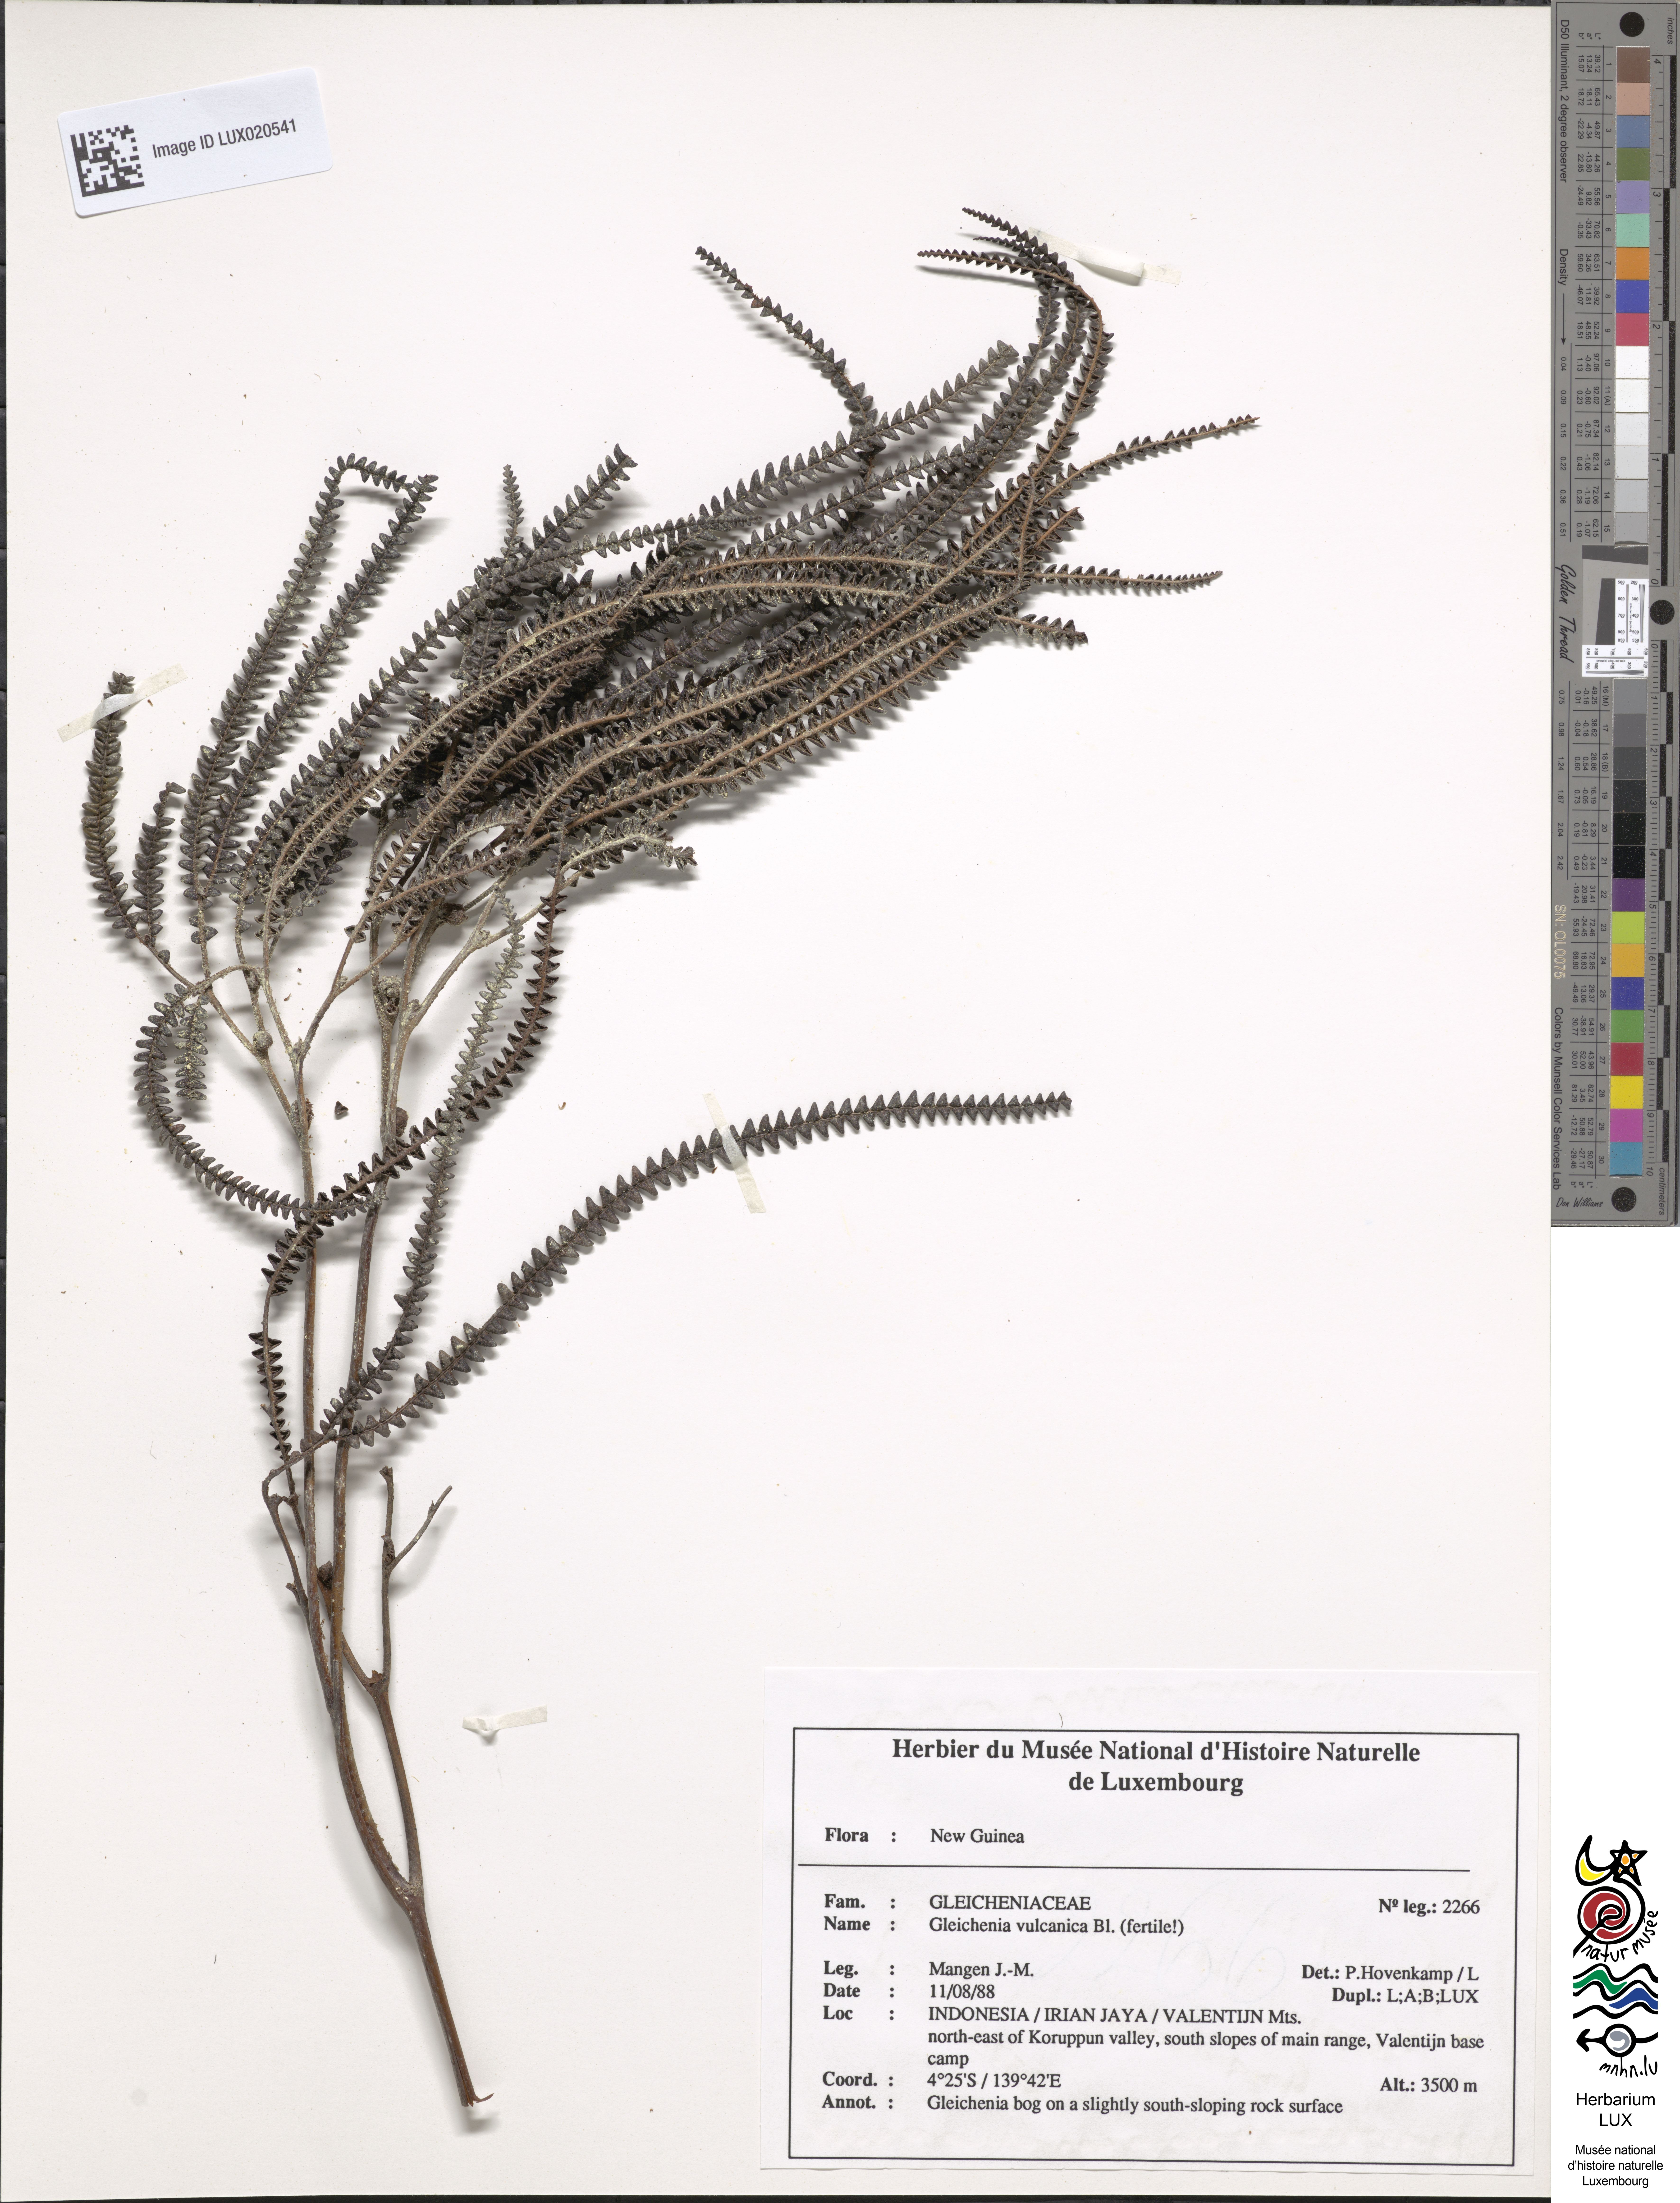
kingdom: Plantae
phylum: Tracheophyta
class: Polypodiopsida
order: Gleicheniales
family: Gleicheniaceae
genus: Gleichenia
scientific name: Gleichenia vulcanica
